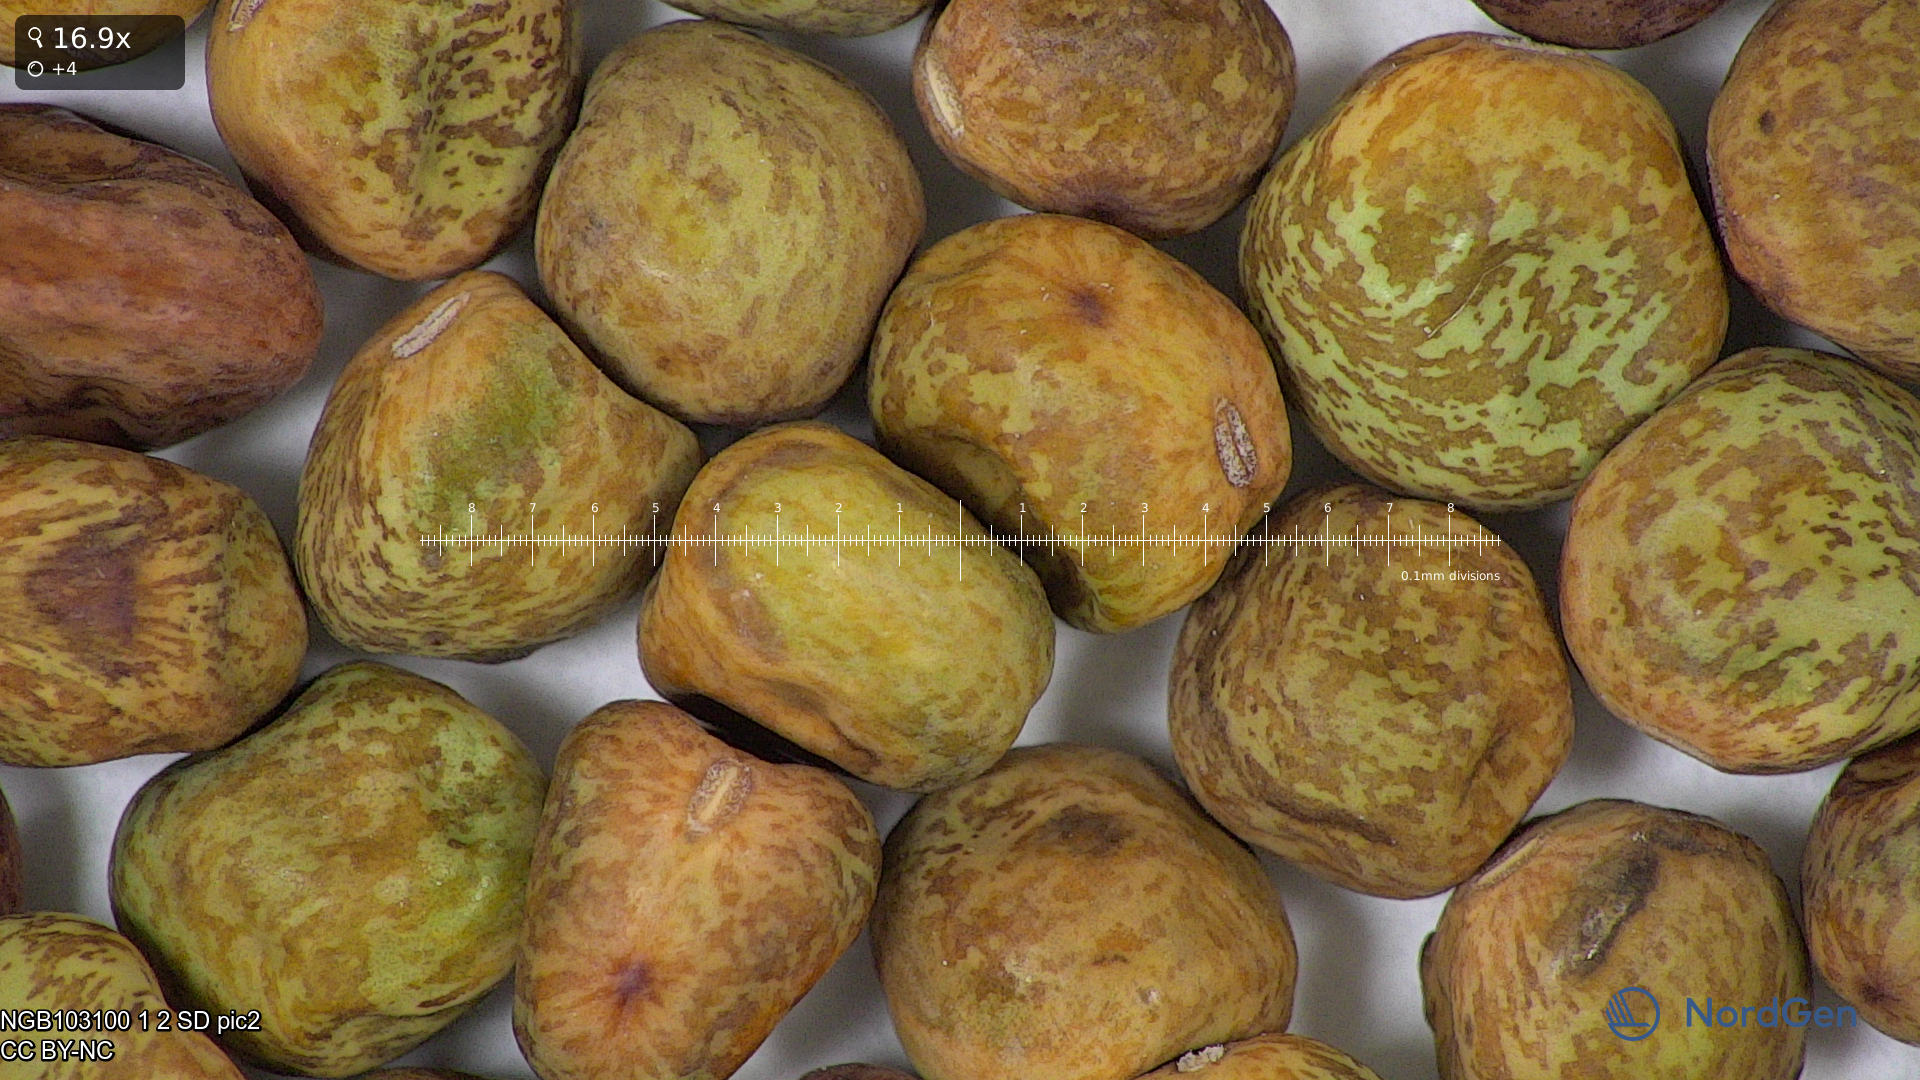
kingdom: Plantae
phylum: Tracheophyta
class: Magnoliopsida
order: Fabales
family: Fabaceae
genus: Lathyrus
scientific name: Lathyrus oleraceus
